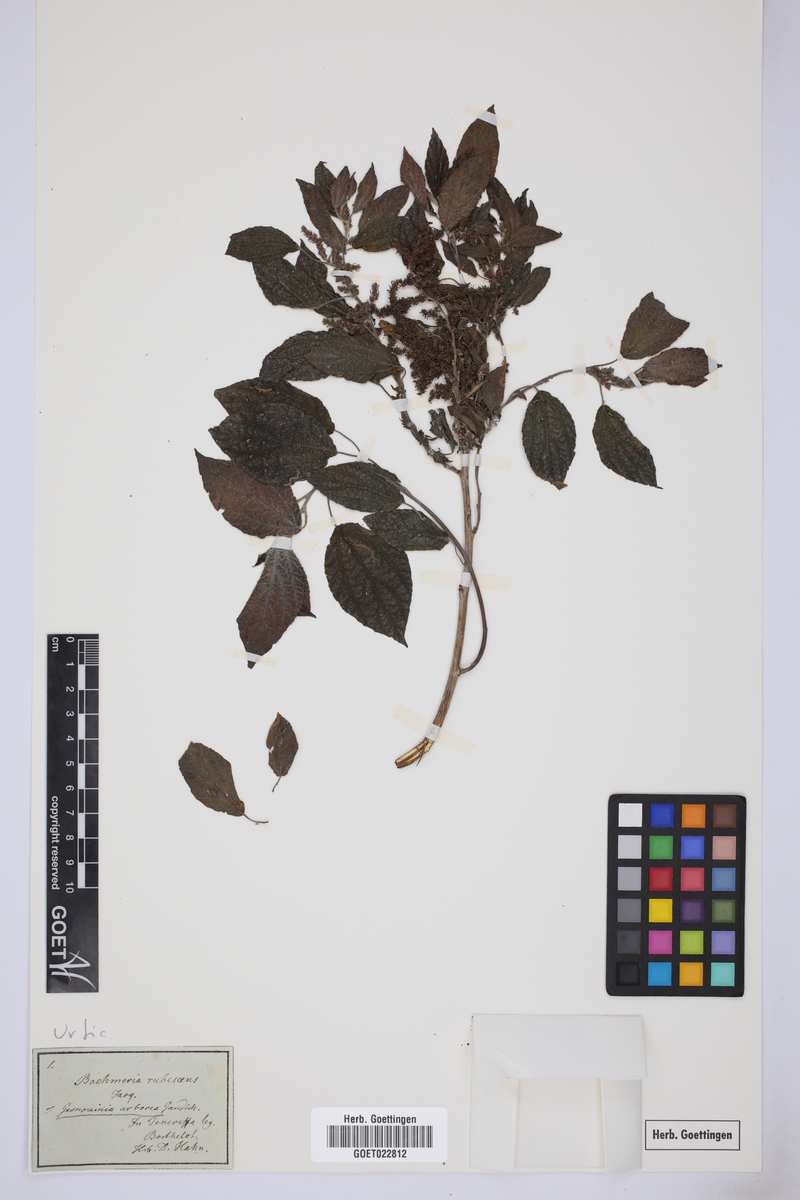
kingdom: Plantae
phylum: Tracheophyta
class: Magnoliopsida
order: Rosales
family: Urticaceae
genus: Gesnouinia
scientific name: Gesnouinia arborea
